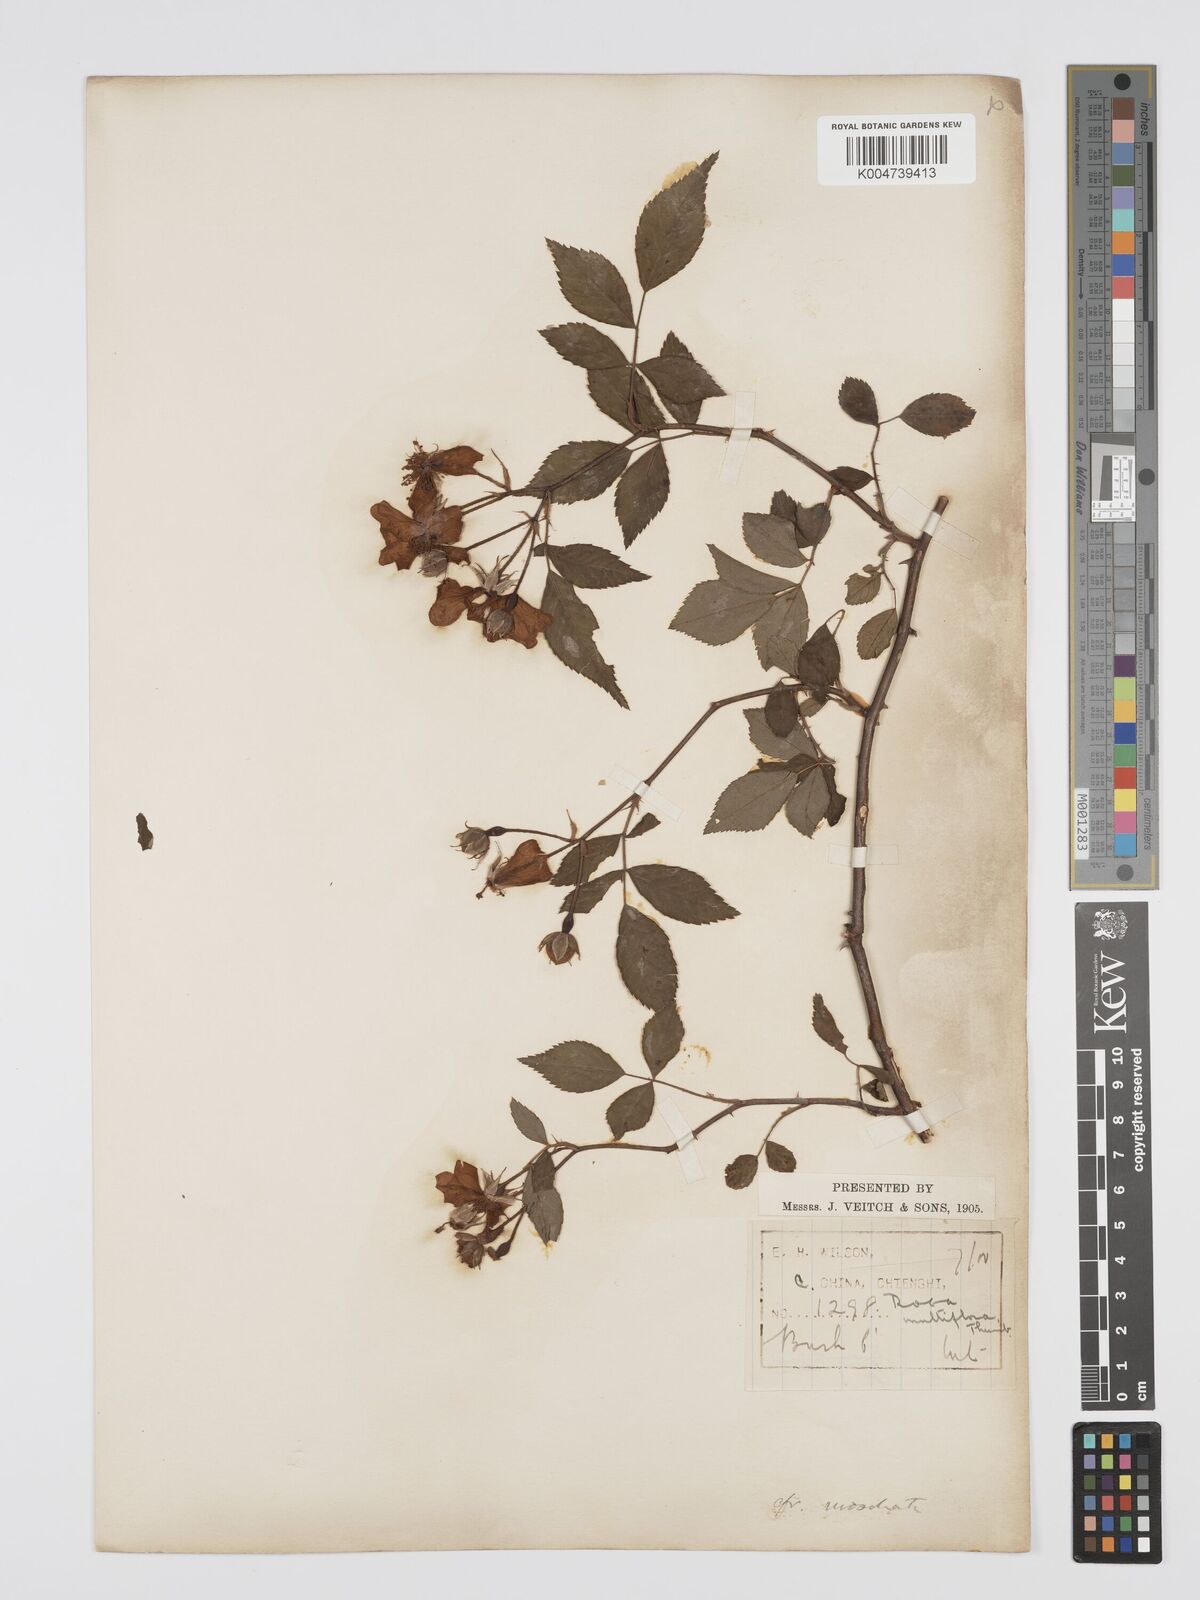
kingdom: Plantae
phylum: Tracheophyta
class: Magnoliopsida
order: Rosales
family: Rosaceae
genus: Rosa
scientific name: Rosa
